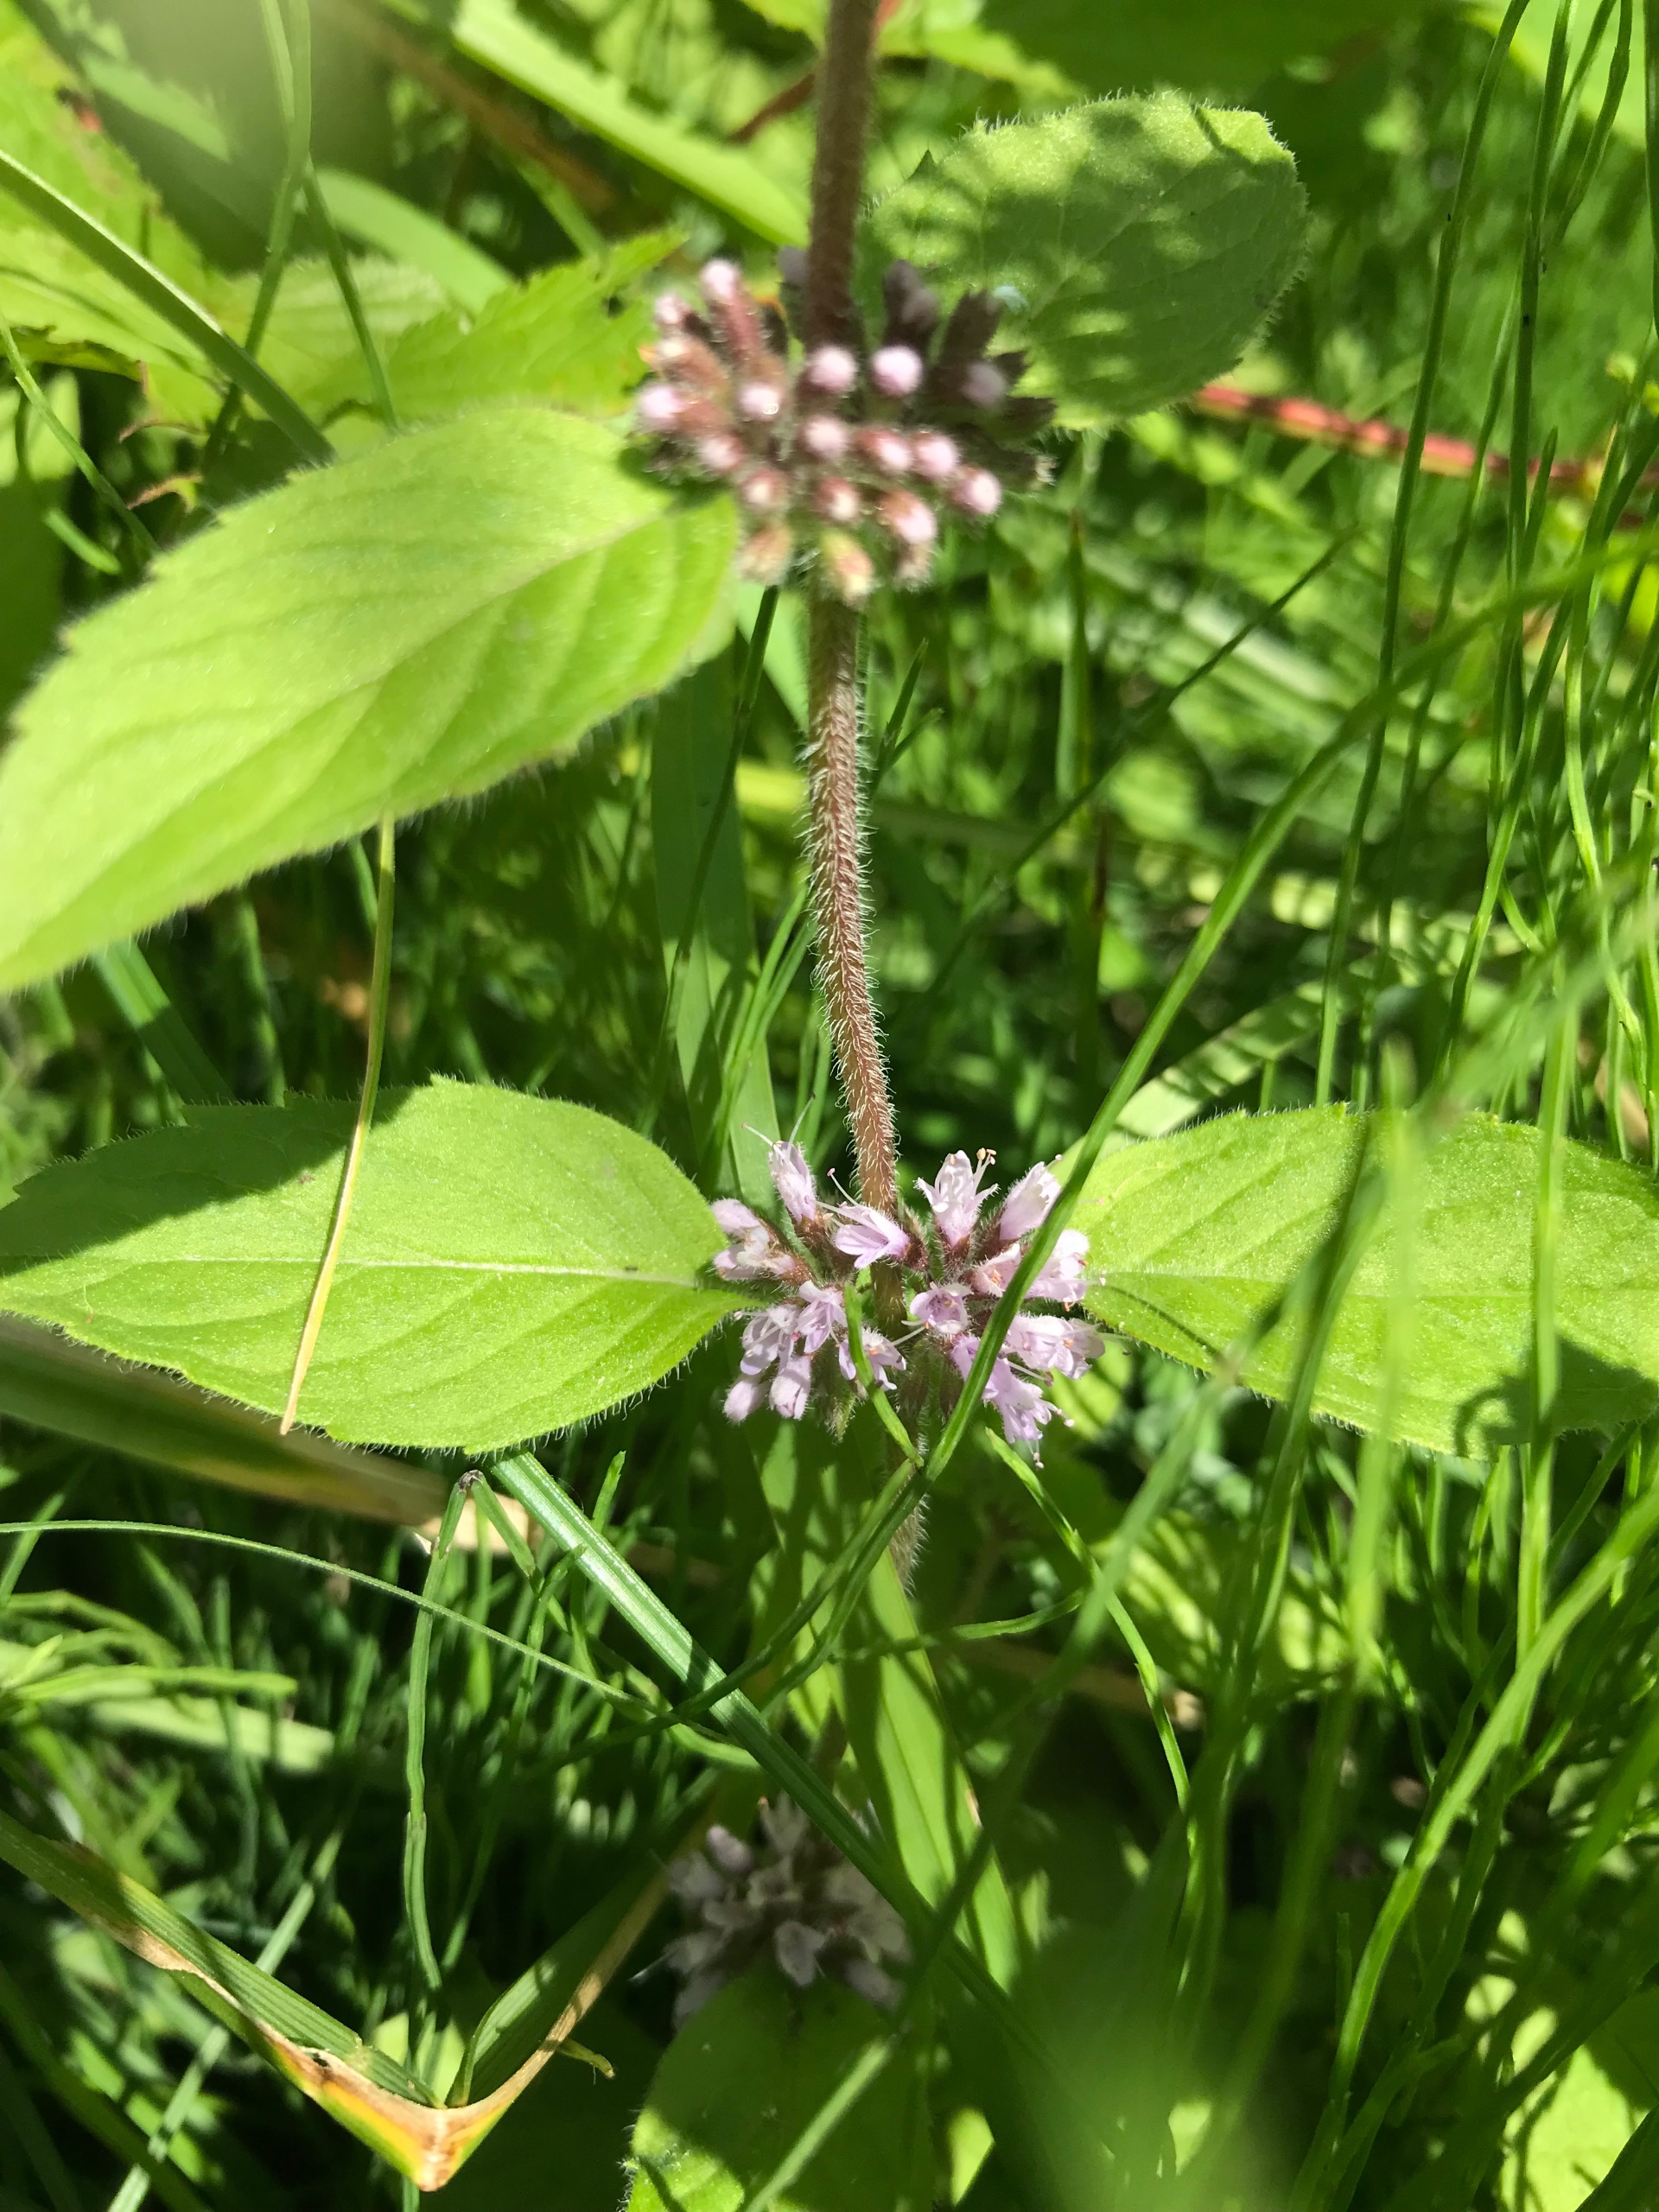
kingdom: Plantae
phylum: Tracheophyta
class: Magnoliopsida
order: Lamiales
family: Lamiaceae
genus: Mentha
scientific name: Mentha verticillata
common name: Krans-mynte
